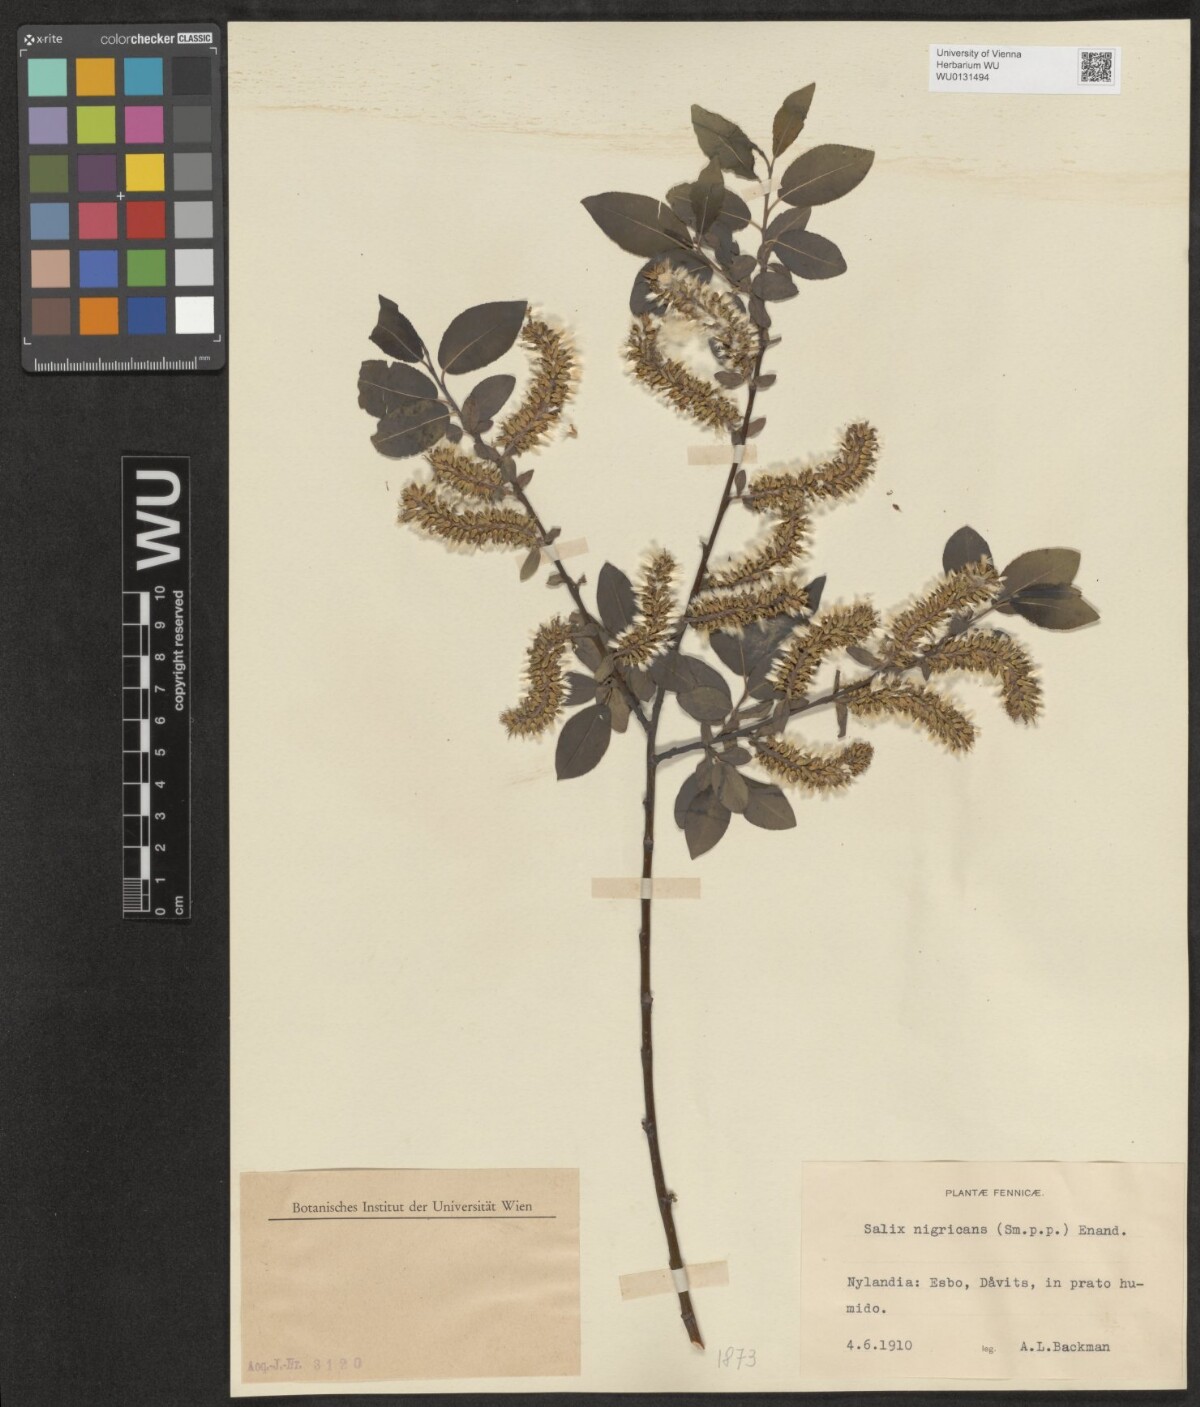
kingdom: Plantae
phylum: Tracheophyta
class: Magnoliopsida
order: Malpighiales
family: Salicaceae
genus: Salix
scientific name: Salix myrsinifolia
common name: Dark-leaved willow
